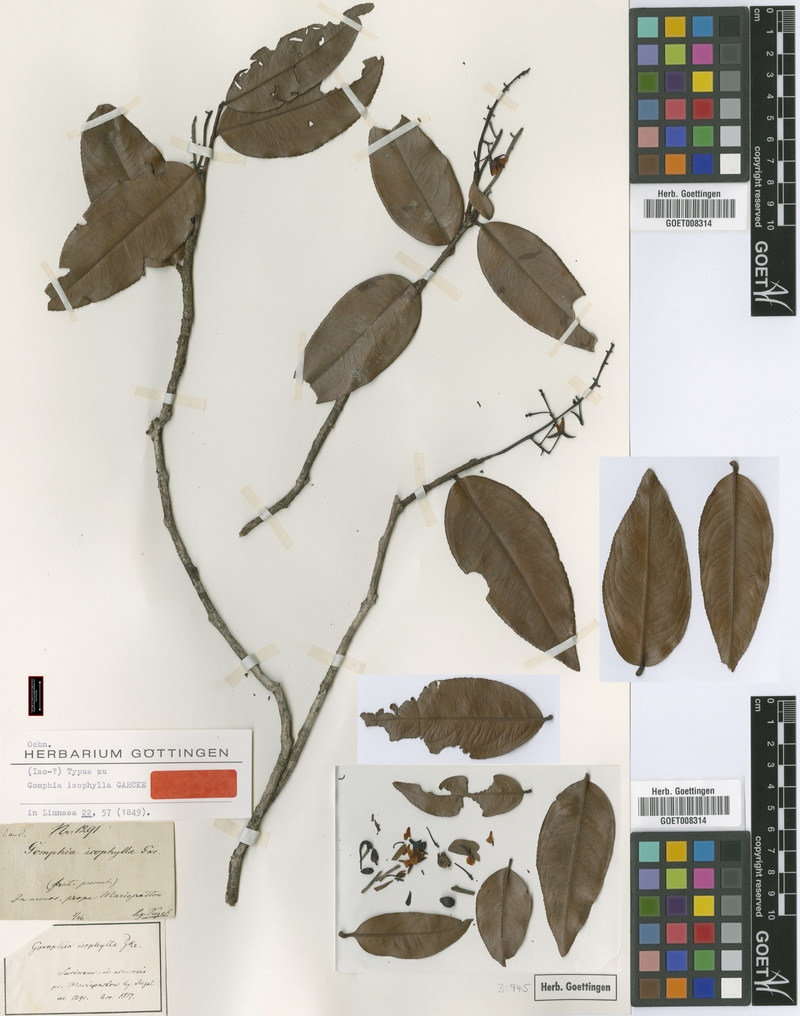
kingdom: Plantae
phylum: Tracheophyta
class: Magnoliopsida
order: Malpighiales
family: Ochnaceae
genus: Ouratea
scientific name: Ouratea cardiosperma
